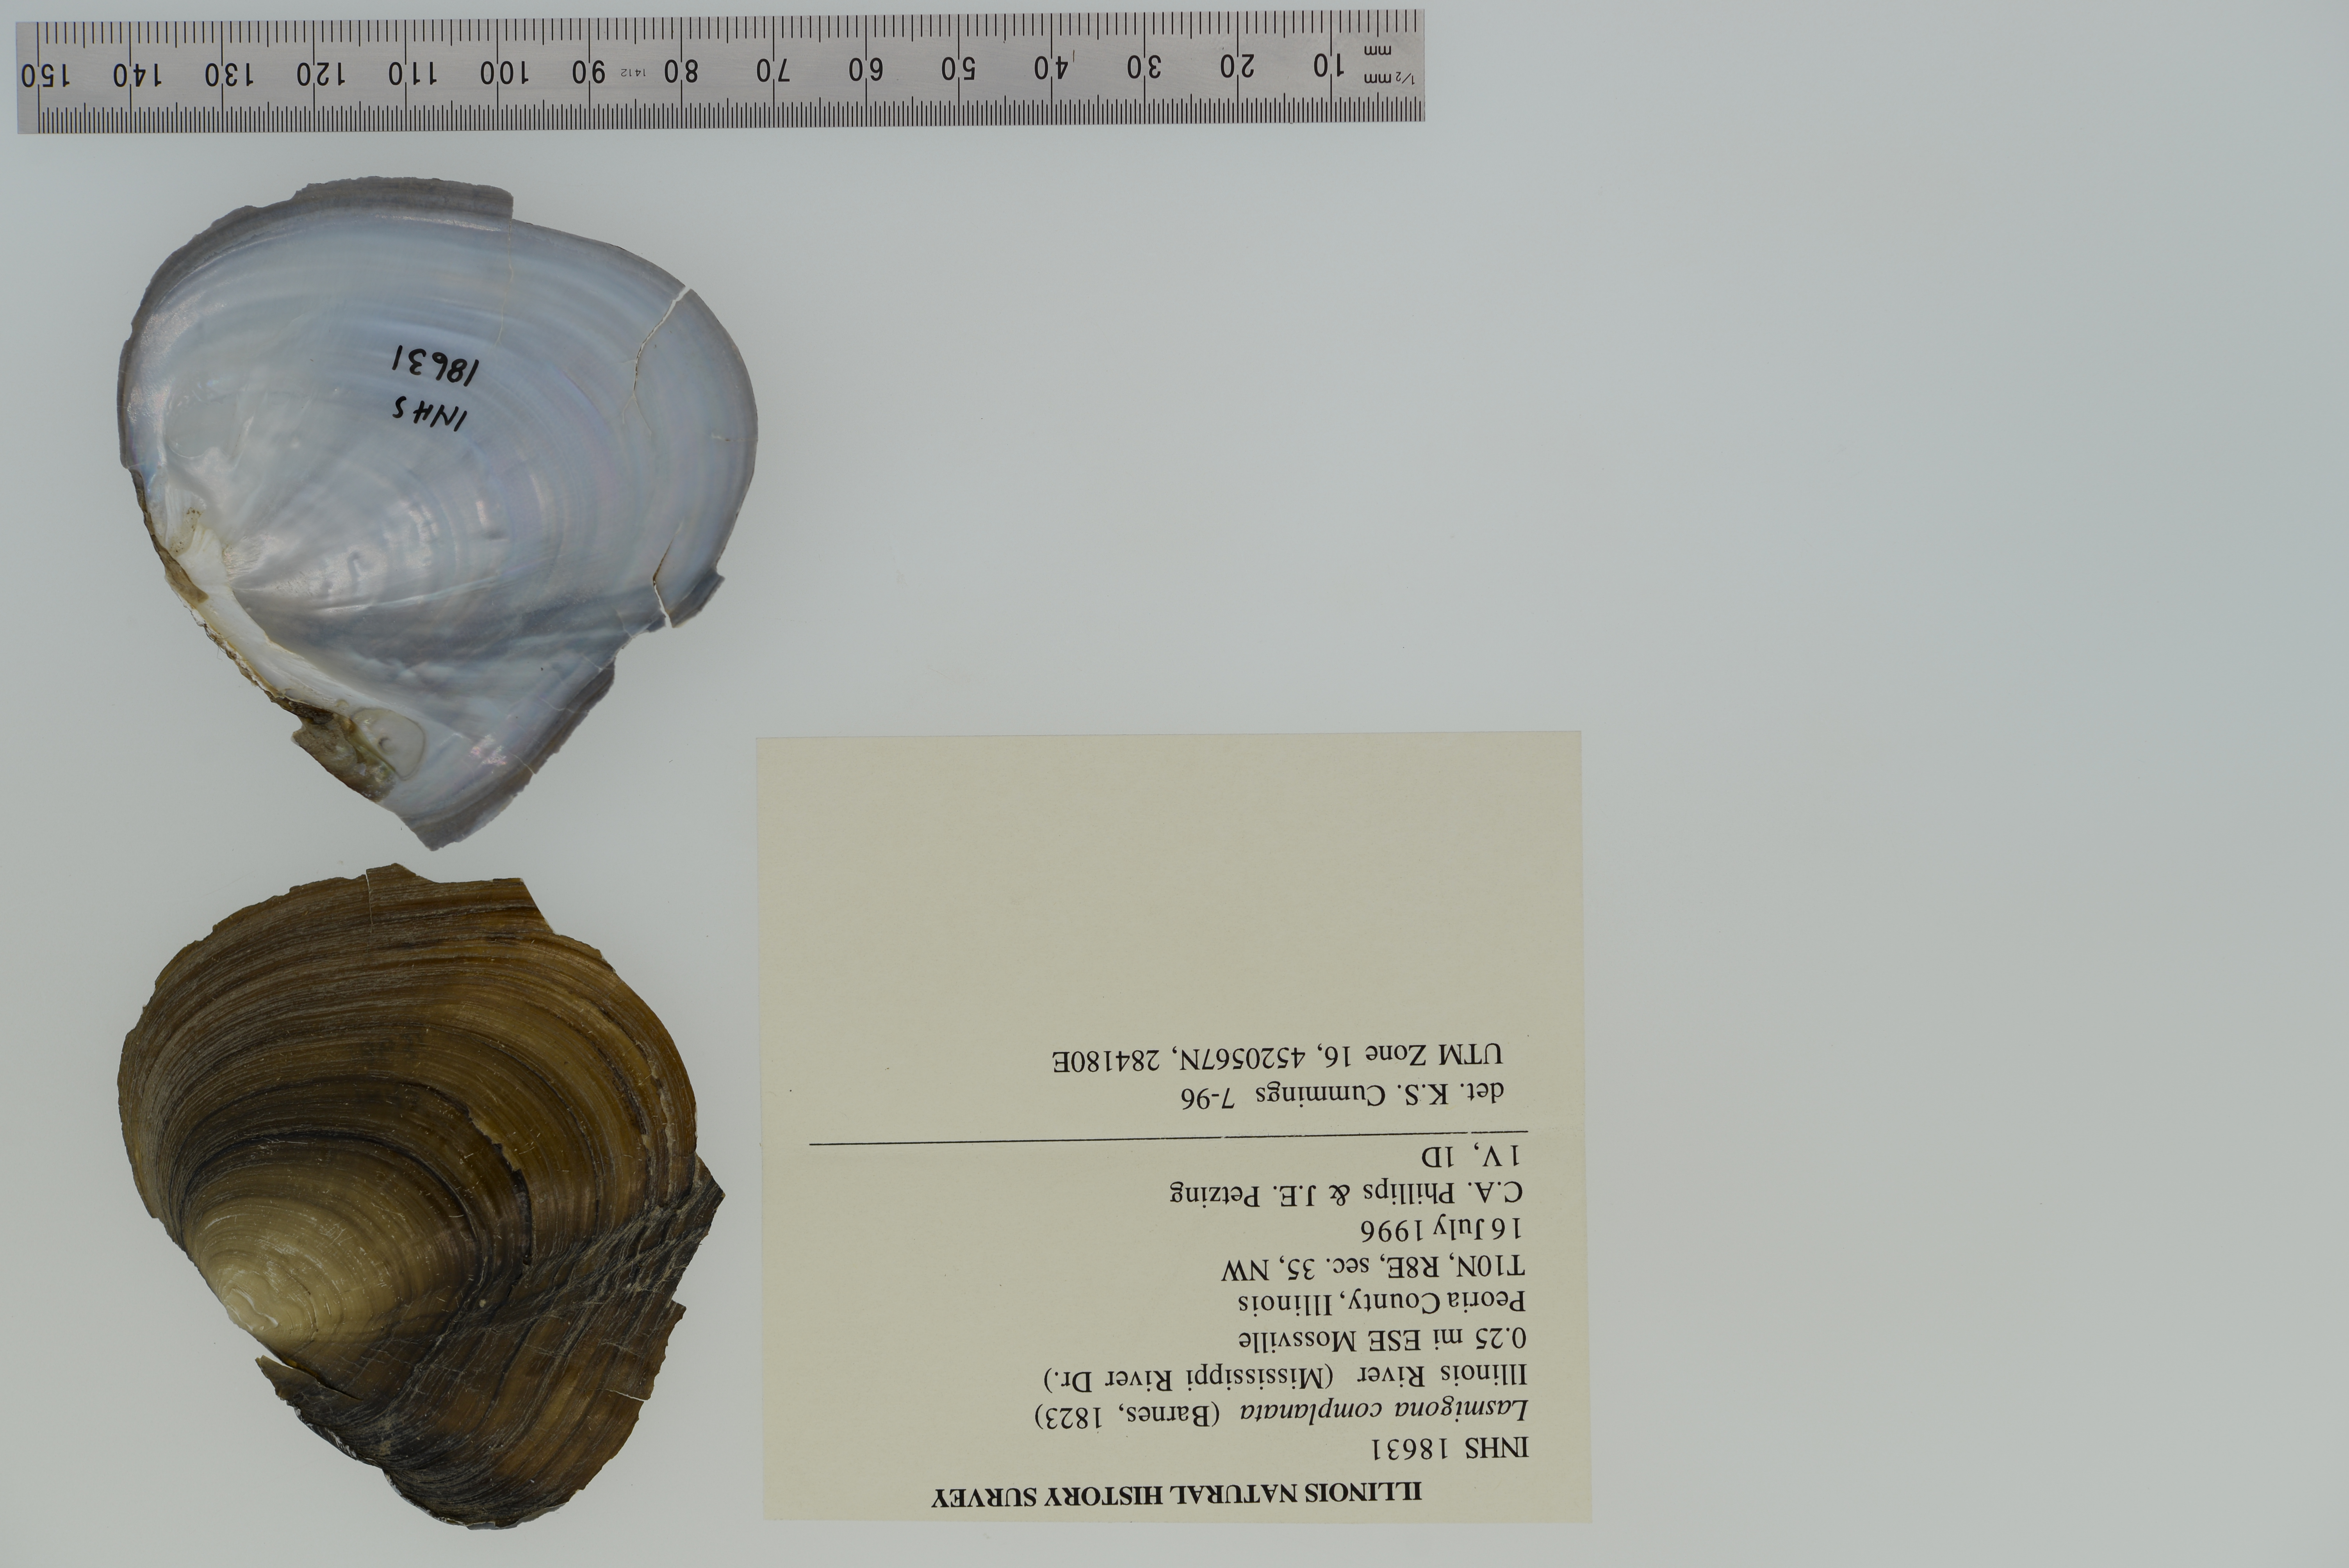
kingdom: Animalia
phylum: Mollusca
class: Bivalvia
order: Unionida
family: Unionidae
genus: Lasmigona
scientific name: Lasmigona complanata
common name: White heelsplitter
